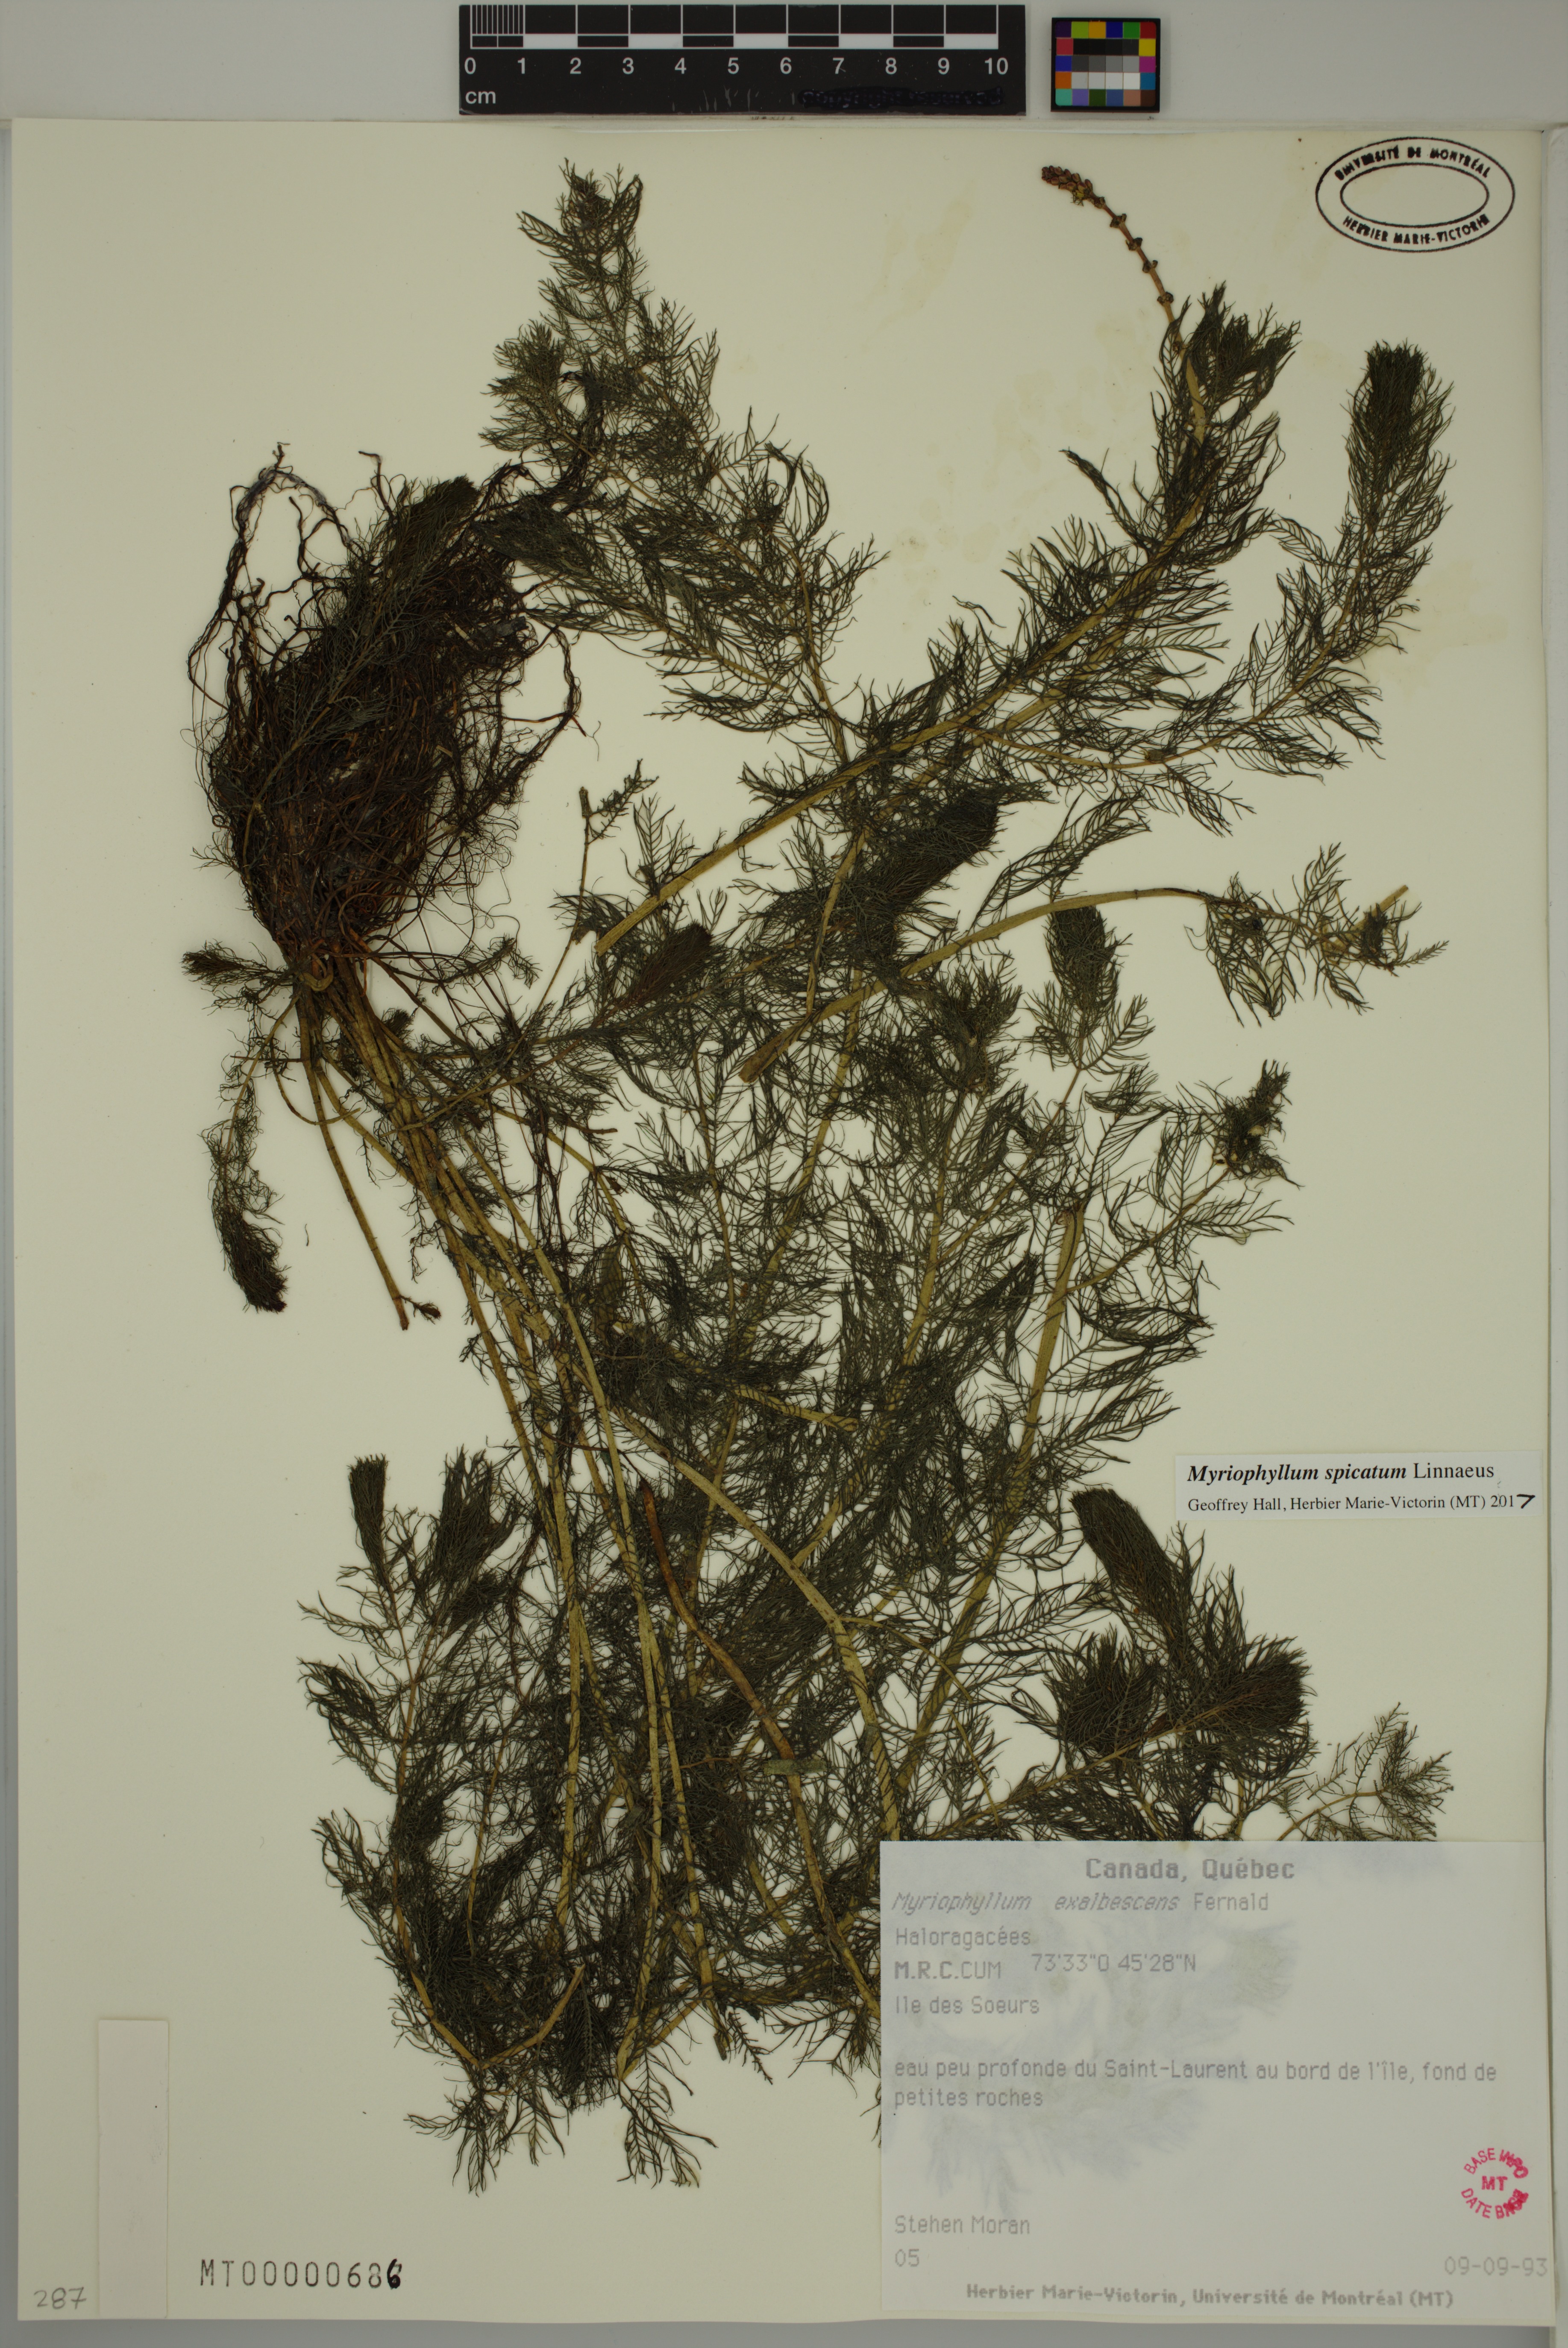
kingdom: Plantae
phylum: Tracheophyta
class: Magnoliopsida
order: Saxifragales
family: Haloragaceae
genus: Myriophyllum
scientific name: Myriophyllum spicatum
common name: Spiked water-milfoil
